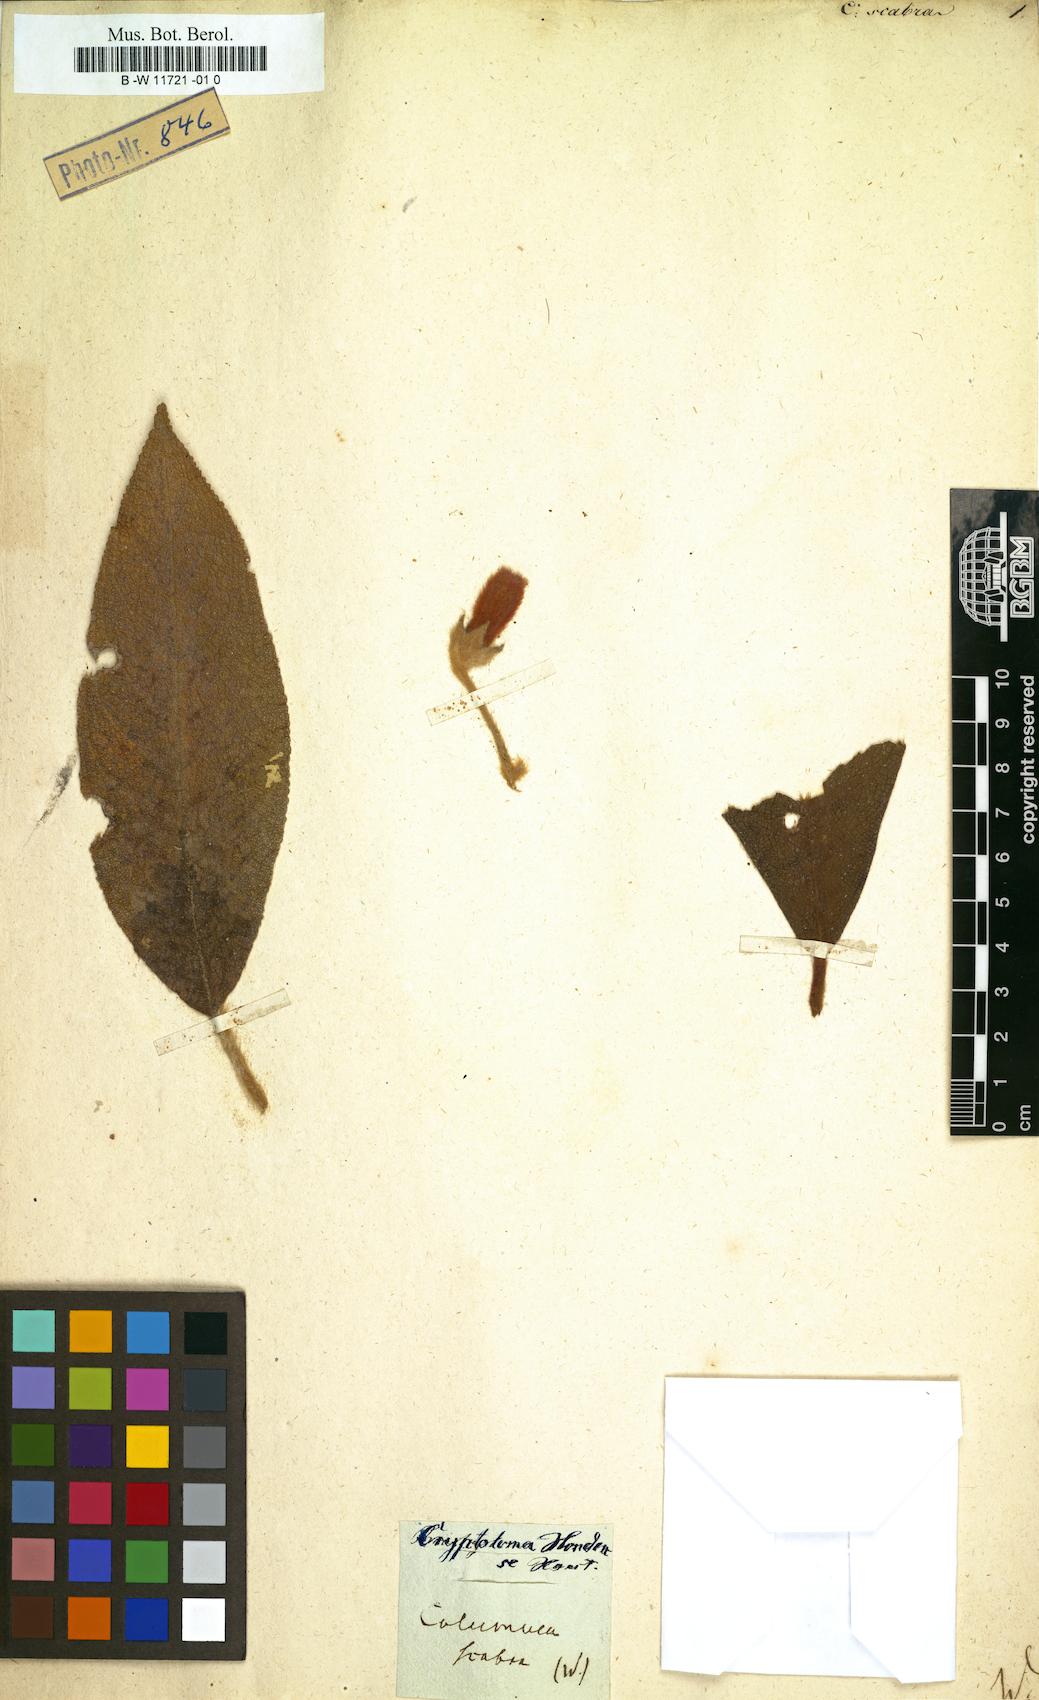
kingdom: Plantae
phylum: Tracheophyta
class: Magnoliopsida
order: Lamiales
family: Gesneriaceae
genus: Columnea
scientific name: Columnea scabrosa
